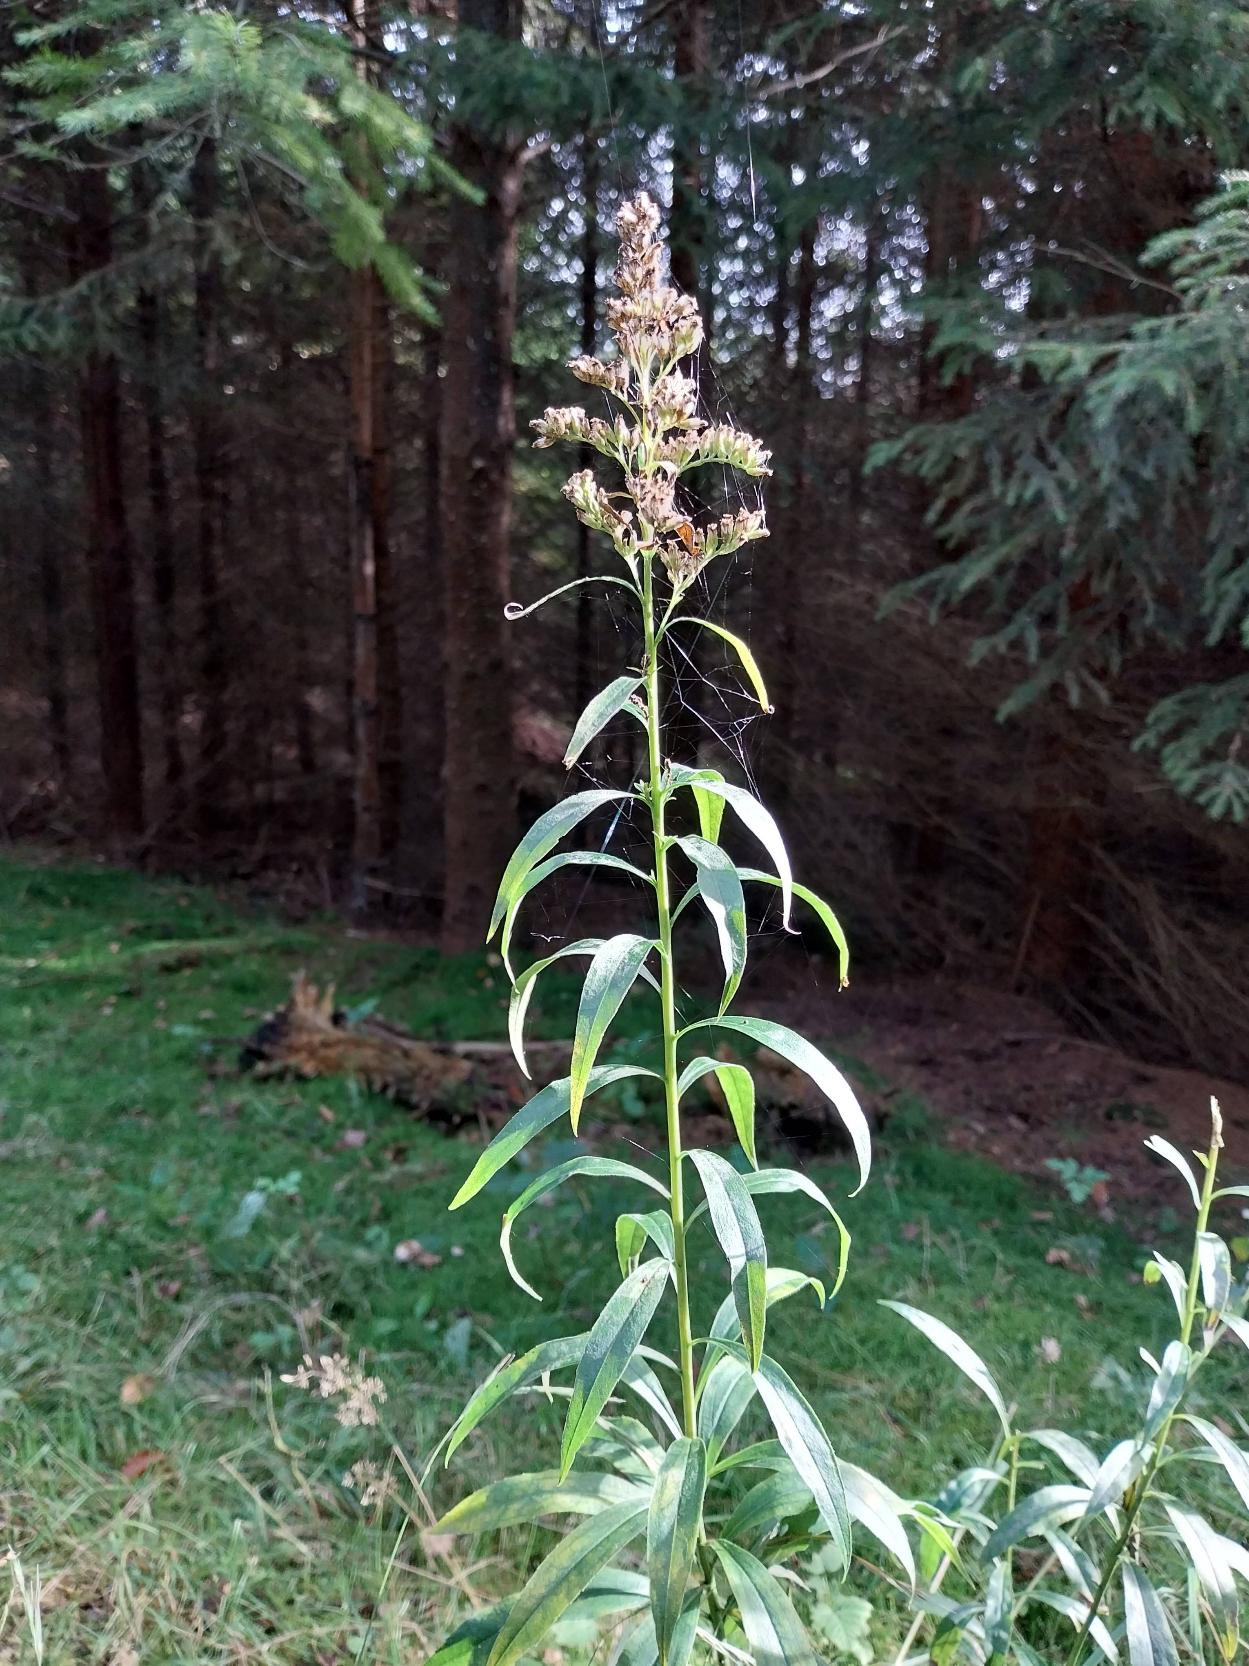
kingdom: Plantae
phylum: Tracheophyta
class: Magnoliopsida
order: Asterales
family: Asteraceae
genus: Solidago
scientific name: Solidago gigantea
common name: Sildig gyldenris
